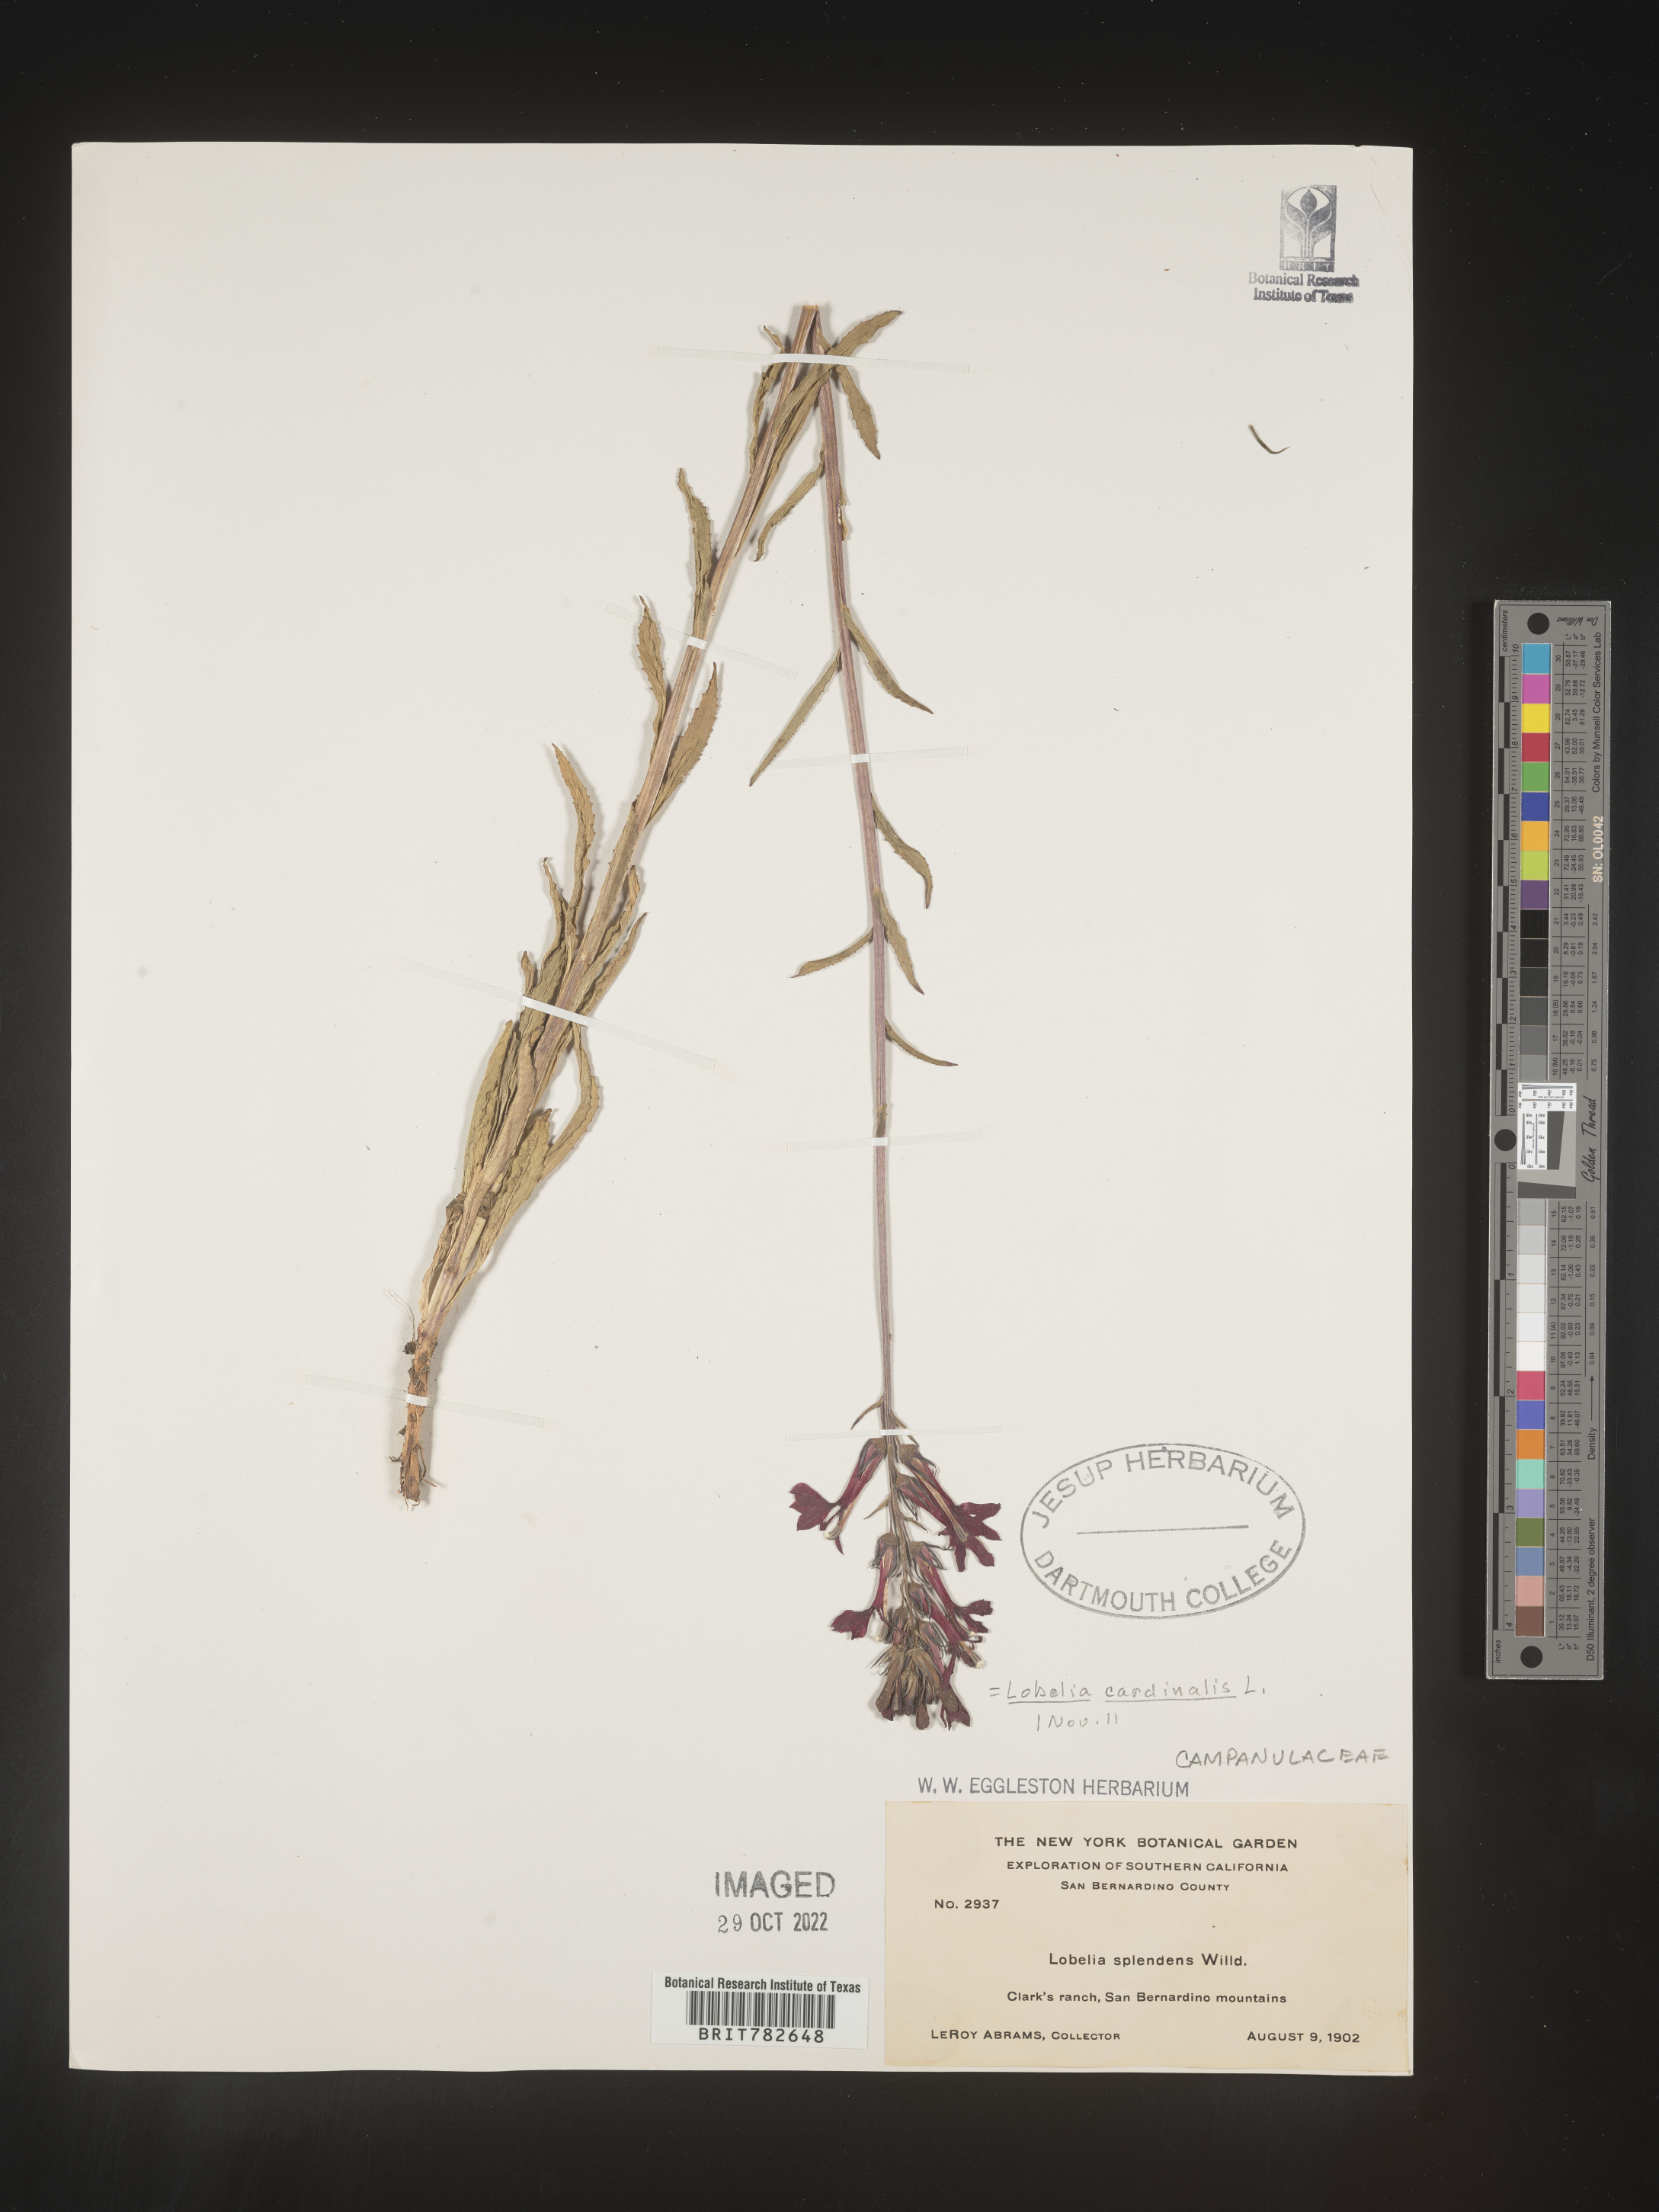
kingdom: Plantae
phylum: Tracheophyta
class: Magnoliopsida
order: Asterales
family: Campanulaceae
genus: Lobelia
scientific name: Lobelia cardinalis
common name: Cardinal flower
